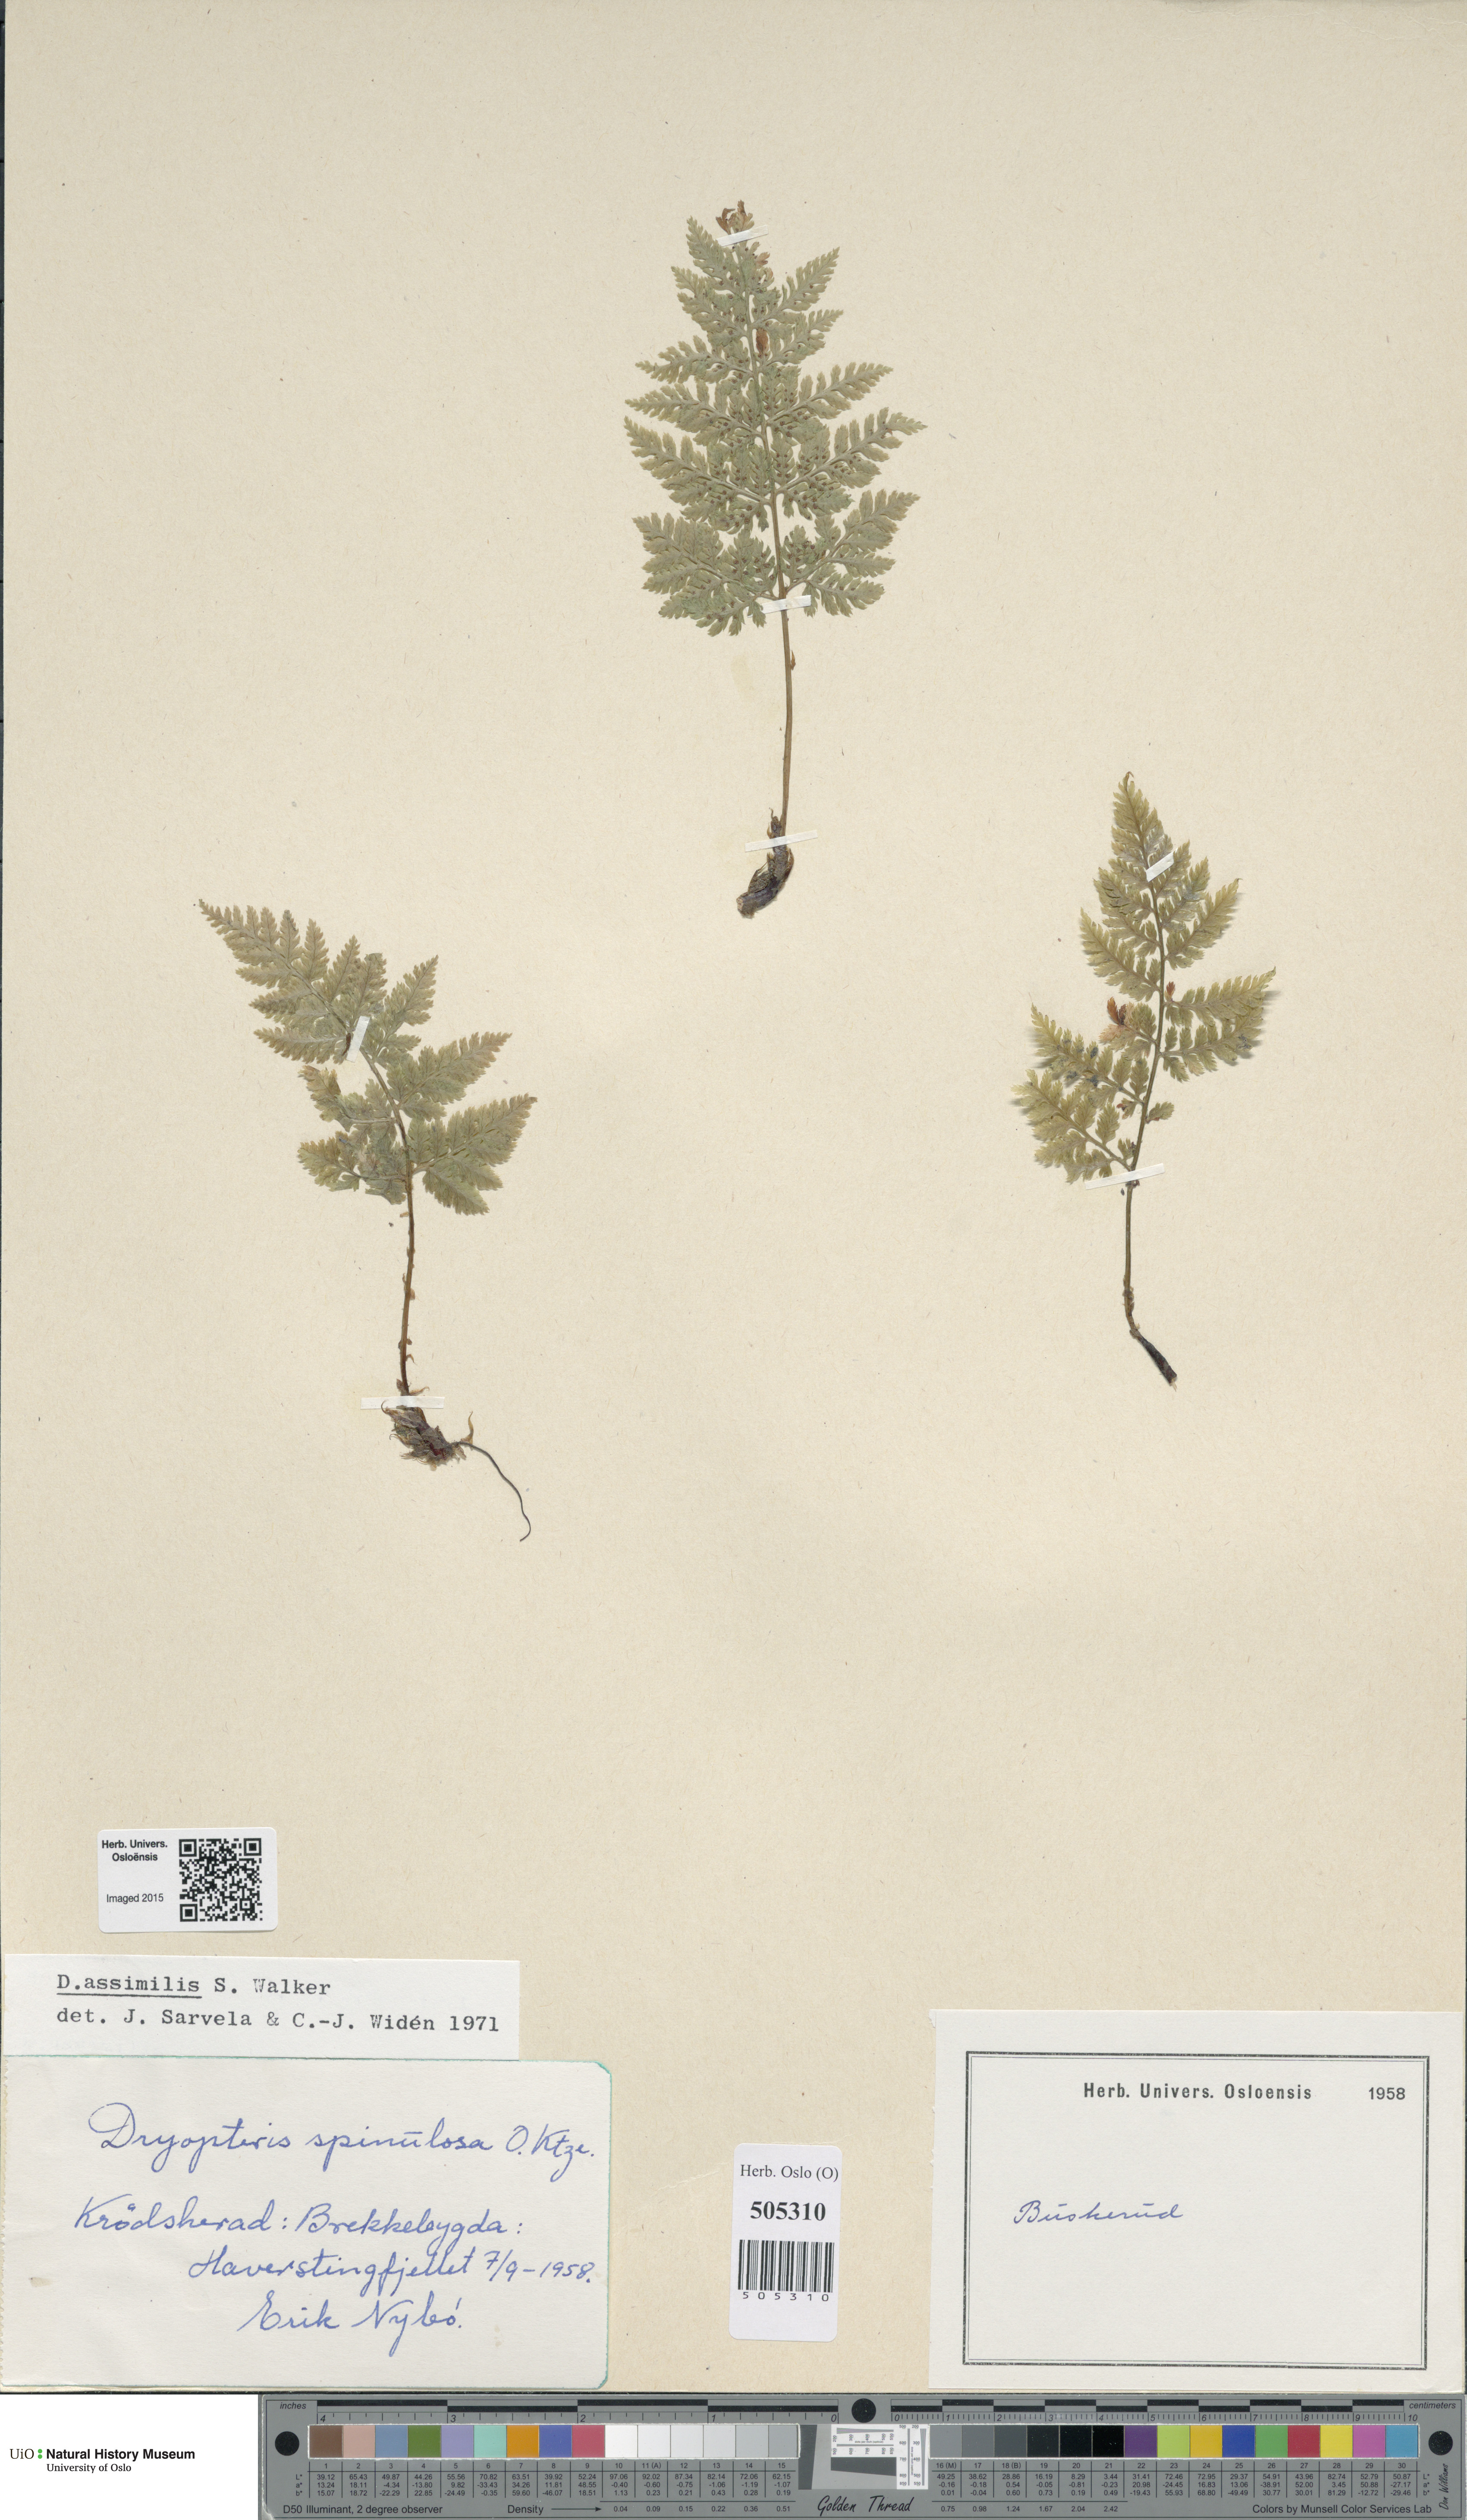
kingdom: Plantae
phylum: Tracheophyta
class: Polypodiopsida
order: Polypodiales
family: Dryopteridaceae
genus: Dryopteris
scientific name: Dryopteris expansa
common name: Northern buckler fern
